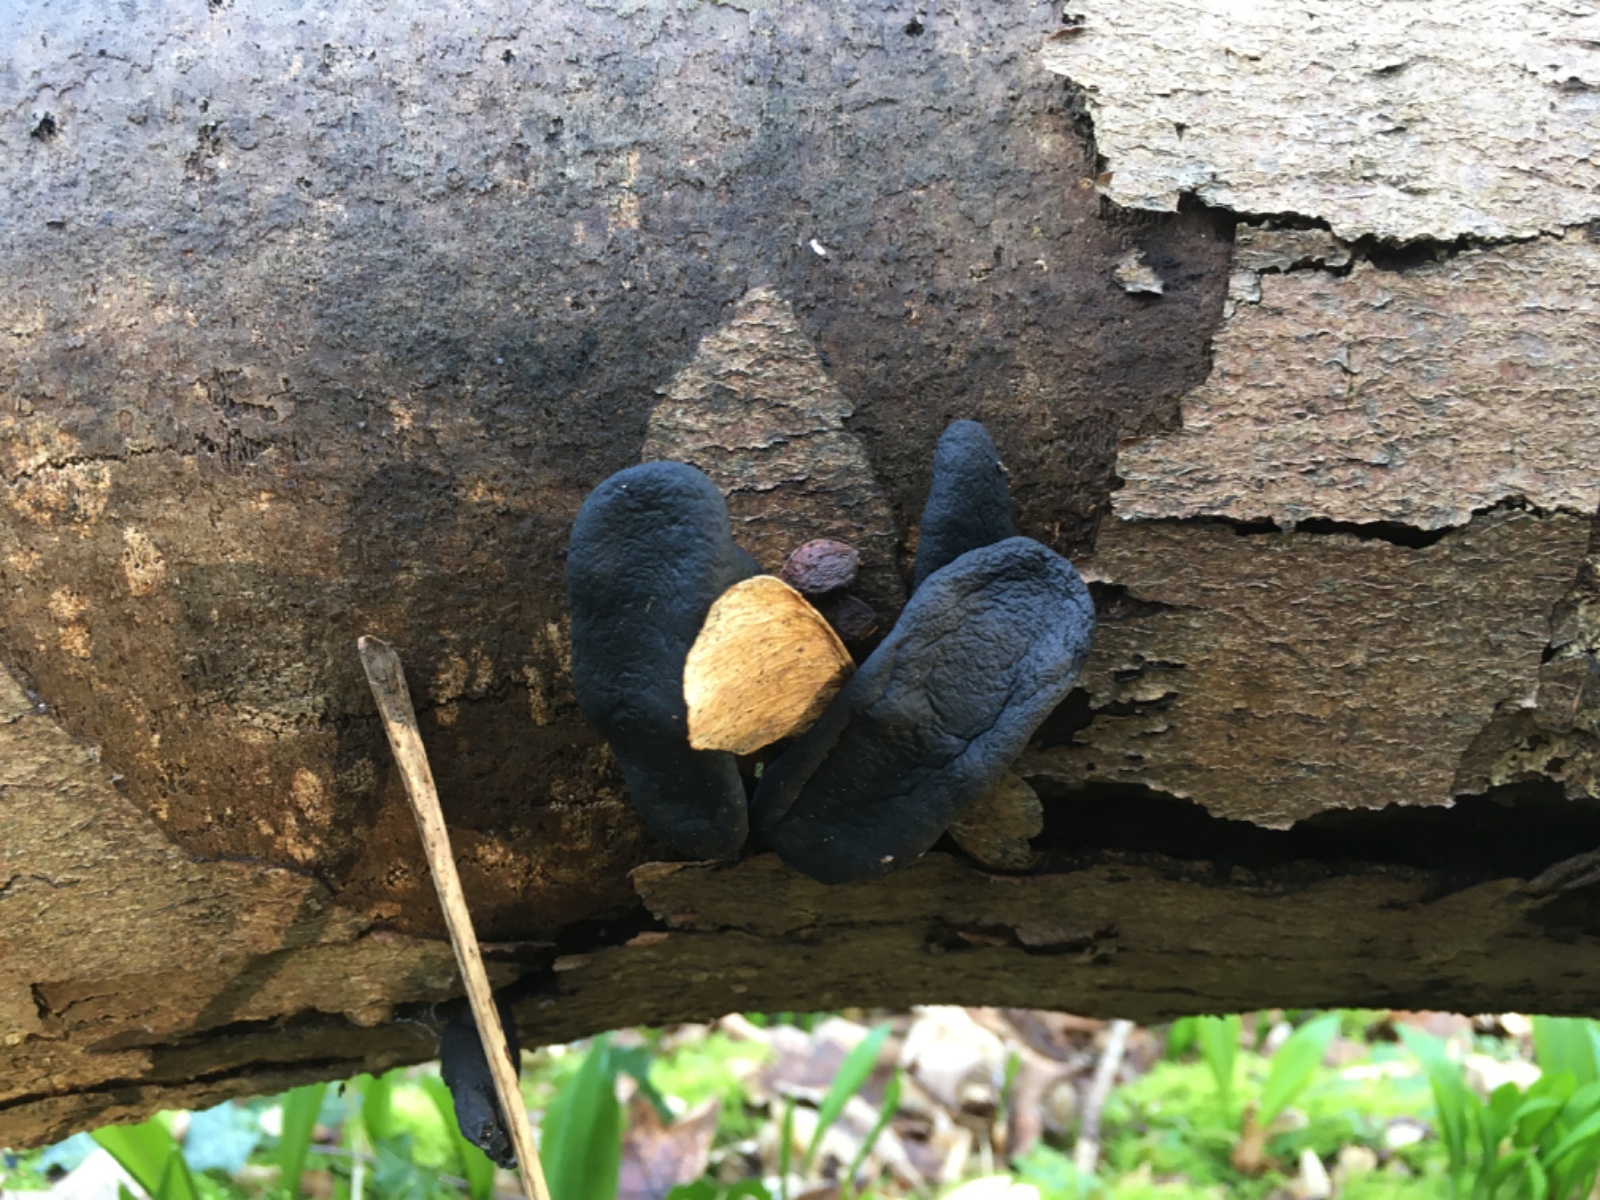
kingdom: Fungi
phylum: Ascomycota
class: Sordariomycetes
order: Xylariales
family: Xylariaceae
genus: Xylaria
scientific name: Xylaria
